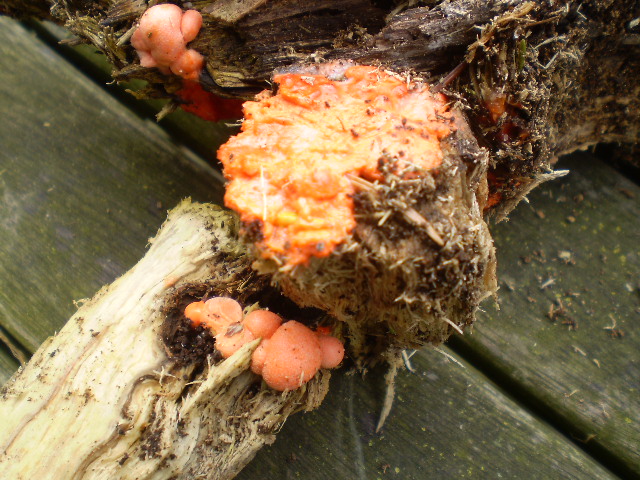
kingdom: Protozoa
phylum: Mycetozoa
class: Myxomycetes
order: Cribrariales
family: Tubiferaceae
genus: Lycogala
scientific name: Lycogala epidendrum
